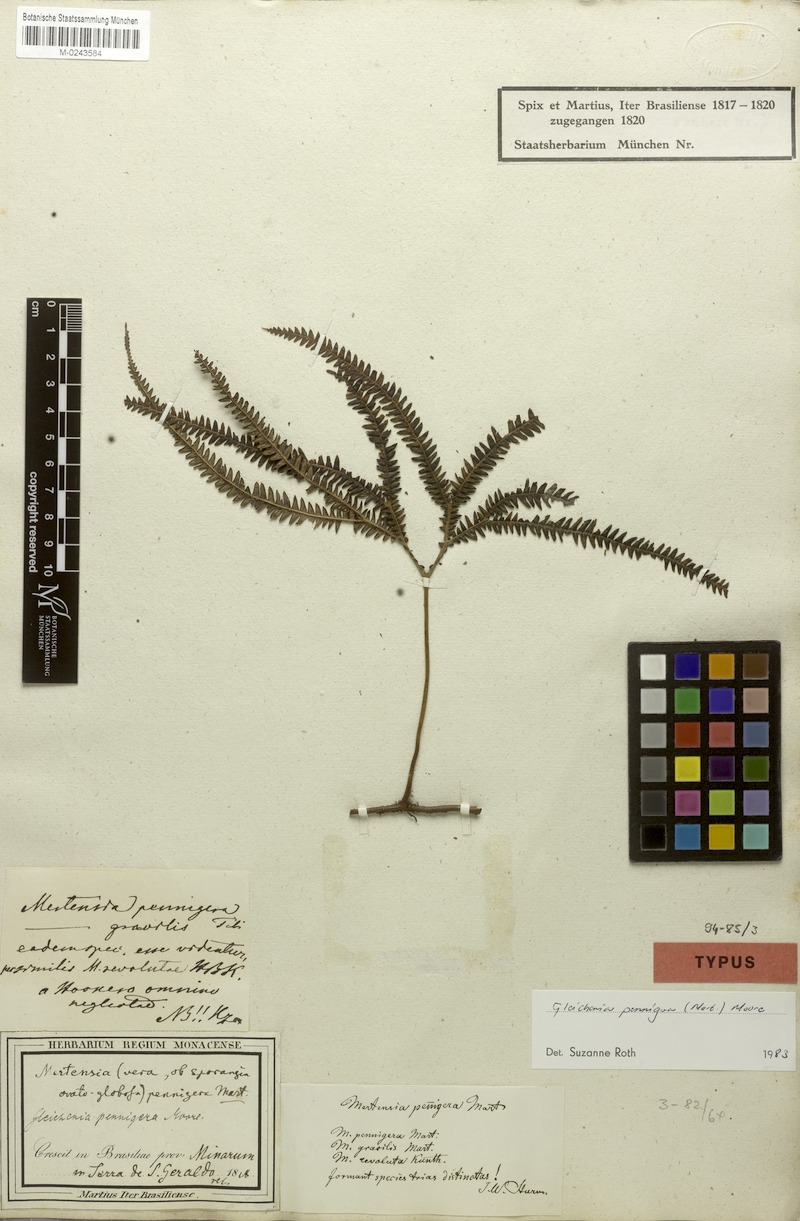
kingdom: Plantae
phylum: Tracheophyta
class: Polypodiopsida
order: Gleicheniales
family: Gleicheniaceae
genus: Sticherus
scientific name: Sticherus pruinosus
